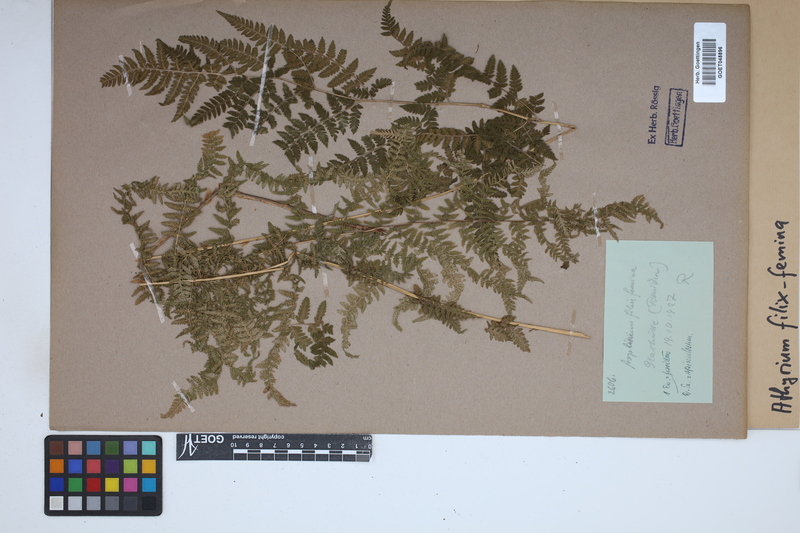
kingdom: Plantae
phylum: Tracheophyta
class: Polypodiopsida
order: Polypodiales
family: Athyriaceae
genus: Athyrium
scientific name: Athyrium filix-femina
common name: Lady fern
